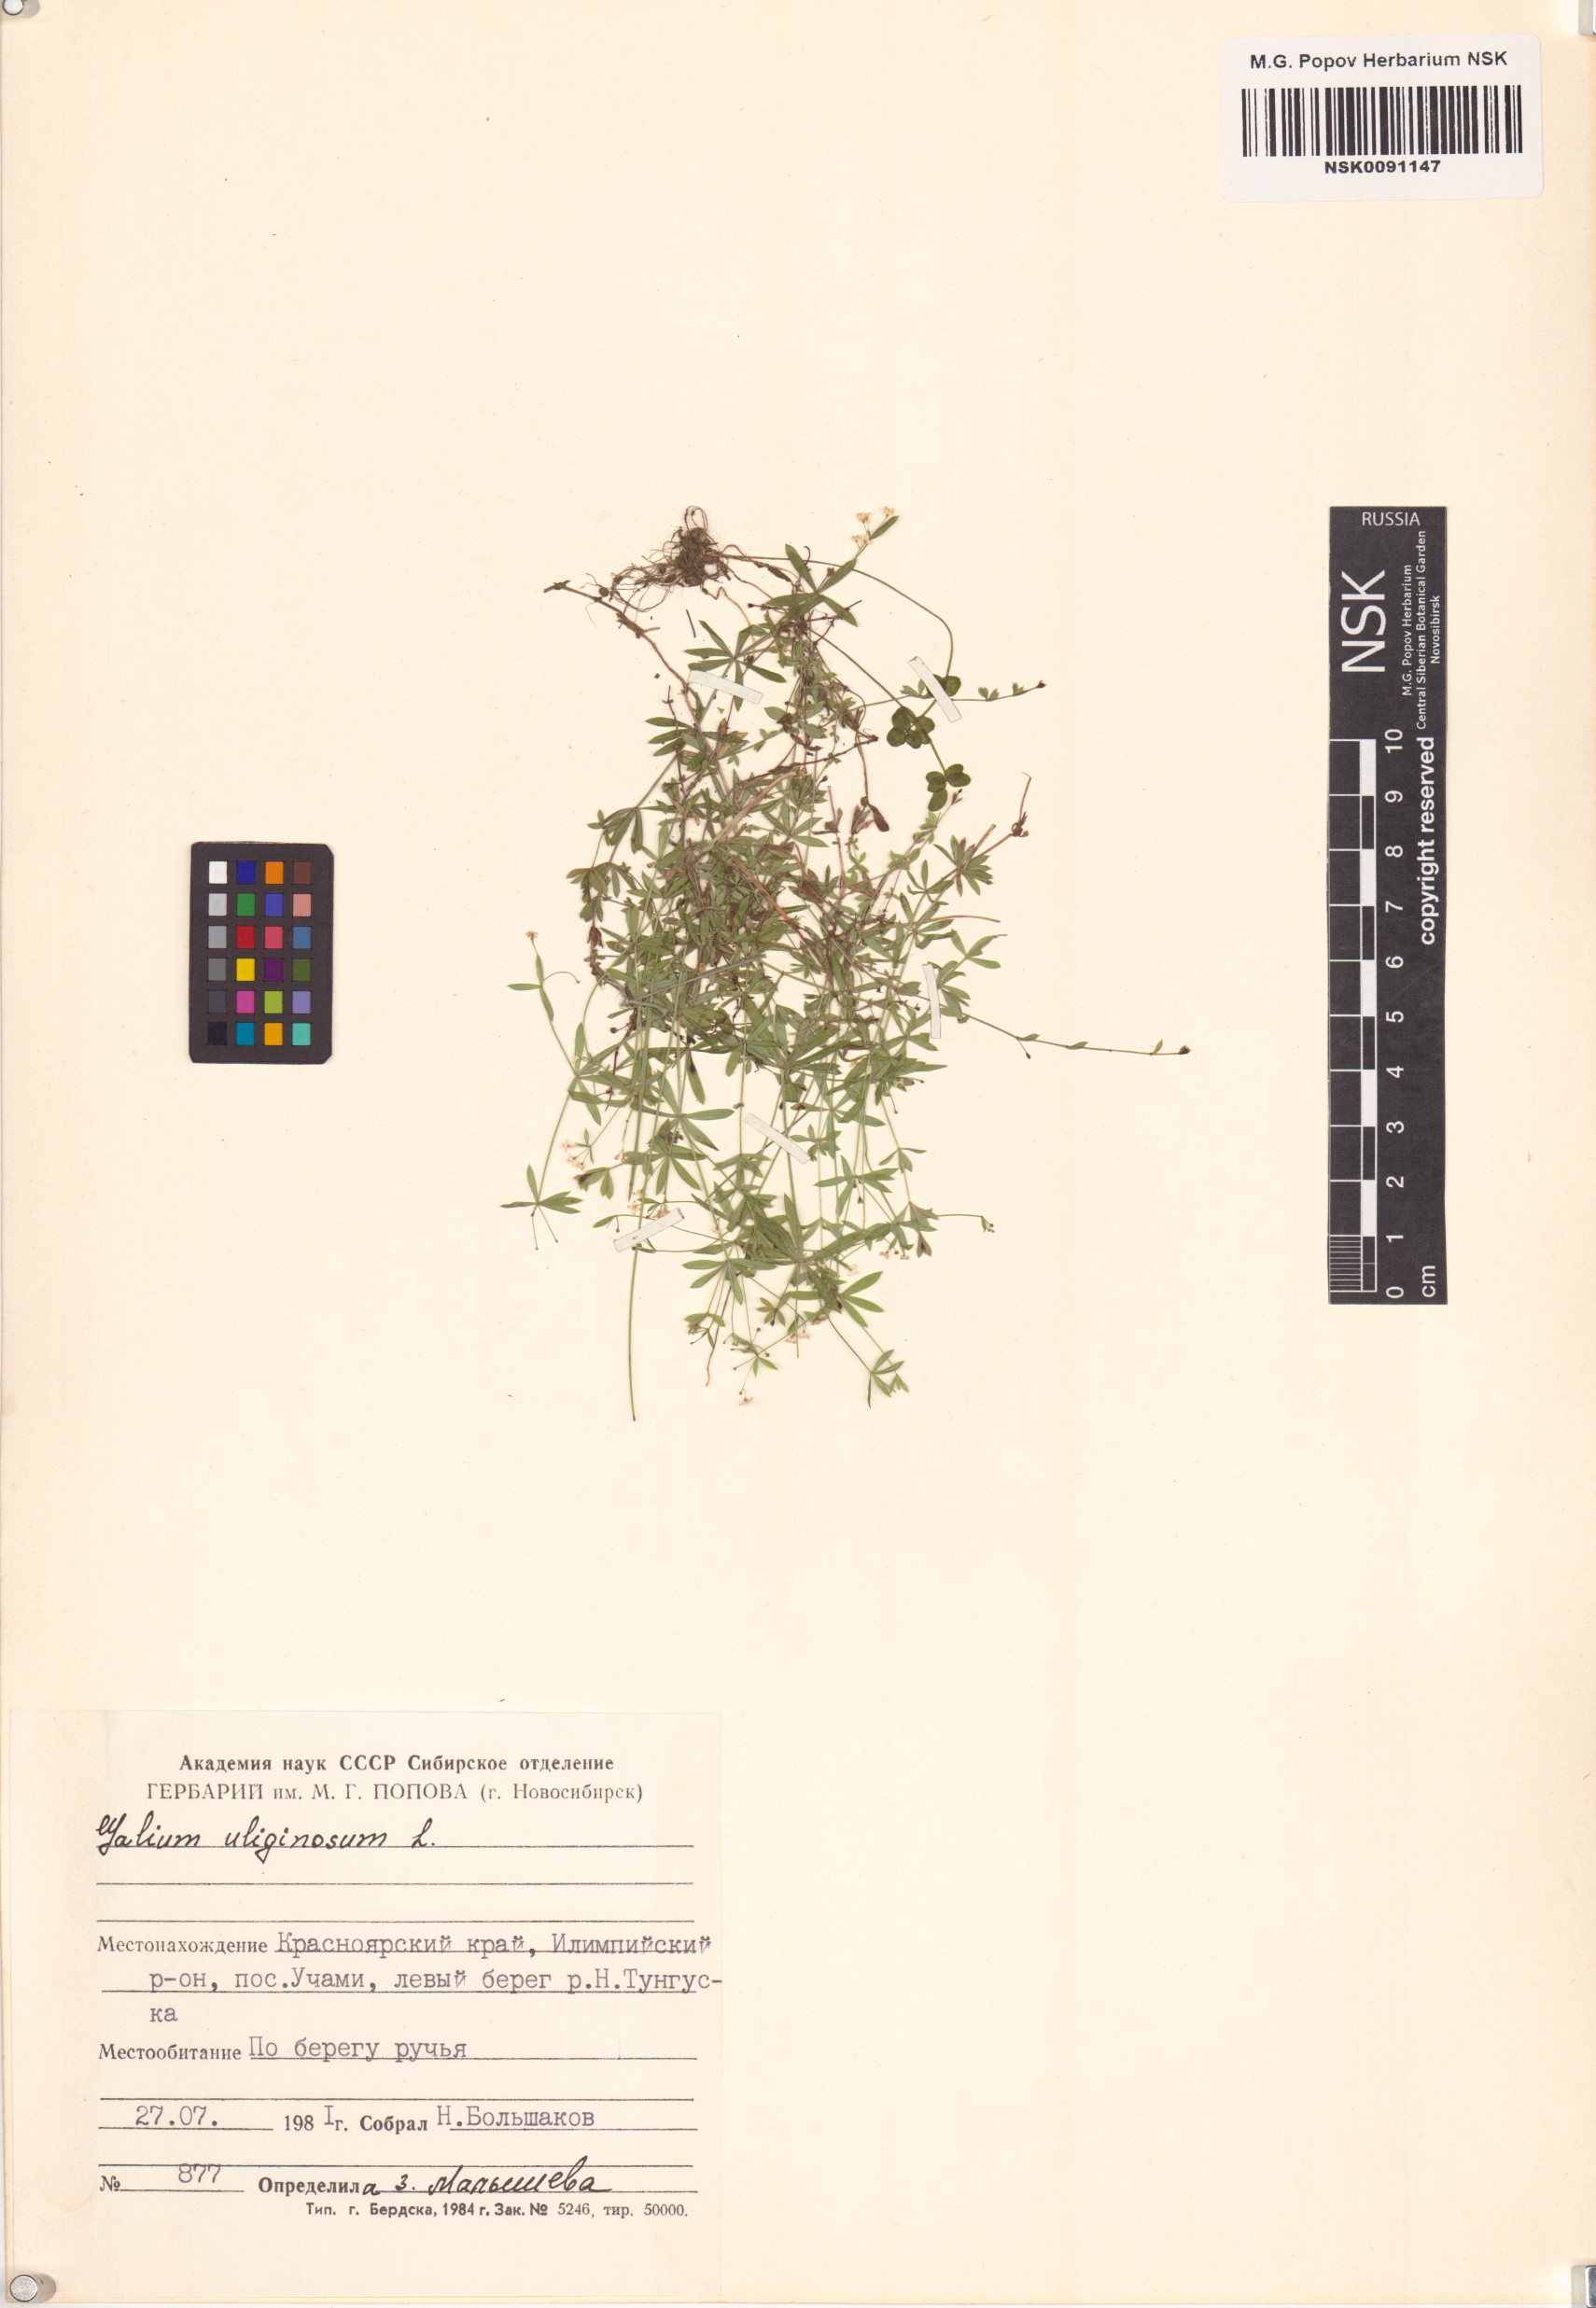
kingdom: Plantae
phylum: Tracheophyta
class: Magnoliopsida
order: Gentianales
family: Rubiaceae
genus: Galium
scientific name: Galium uliginosum
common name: Fen bedstraw
